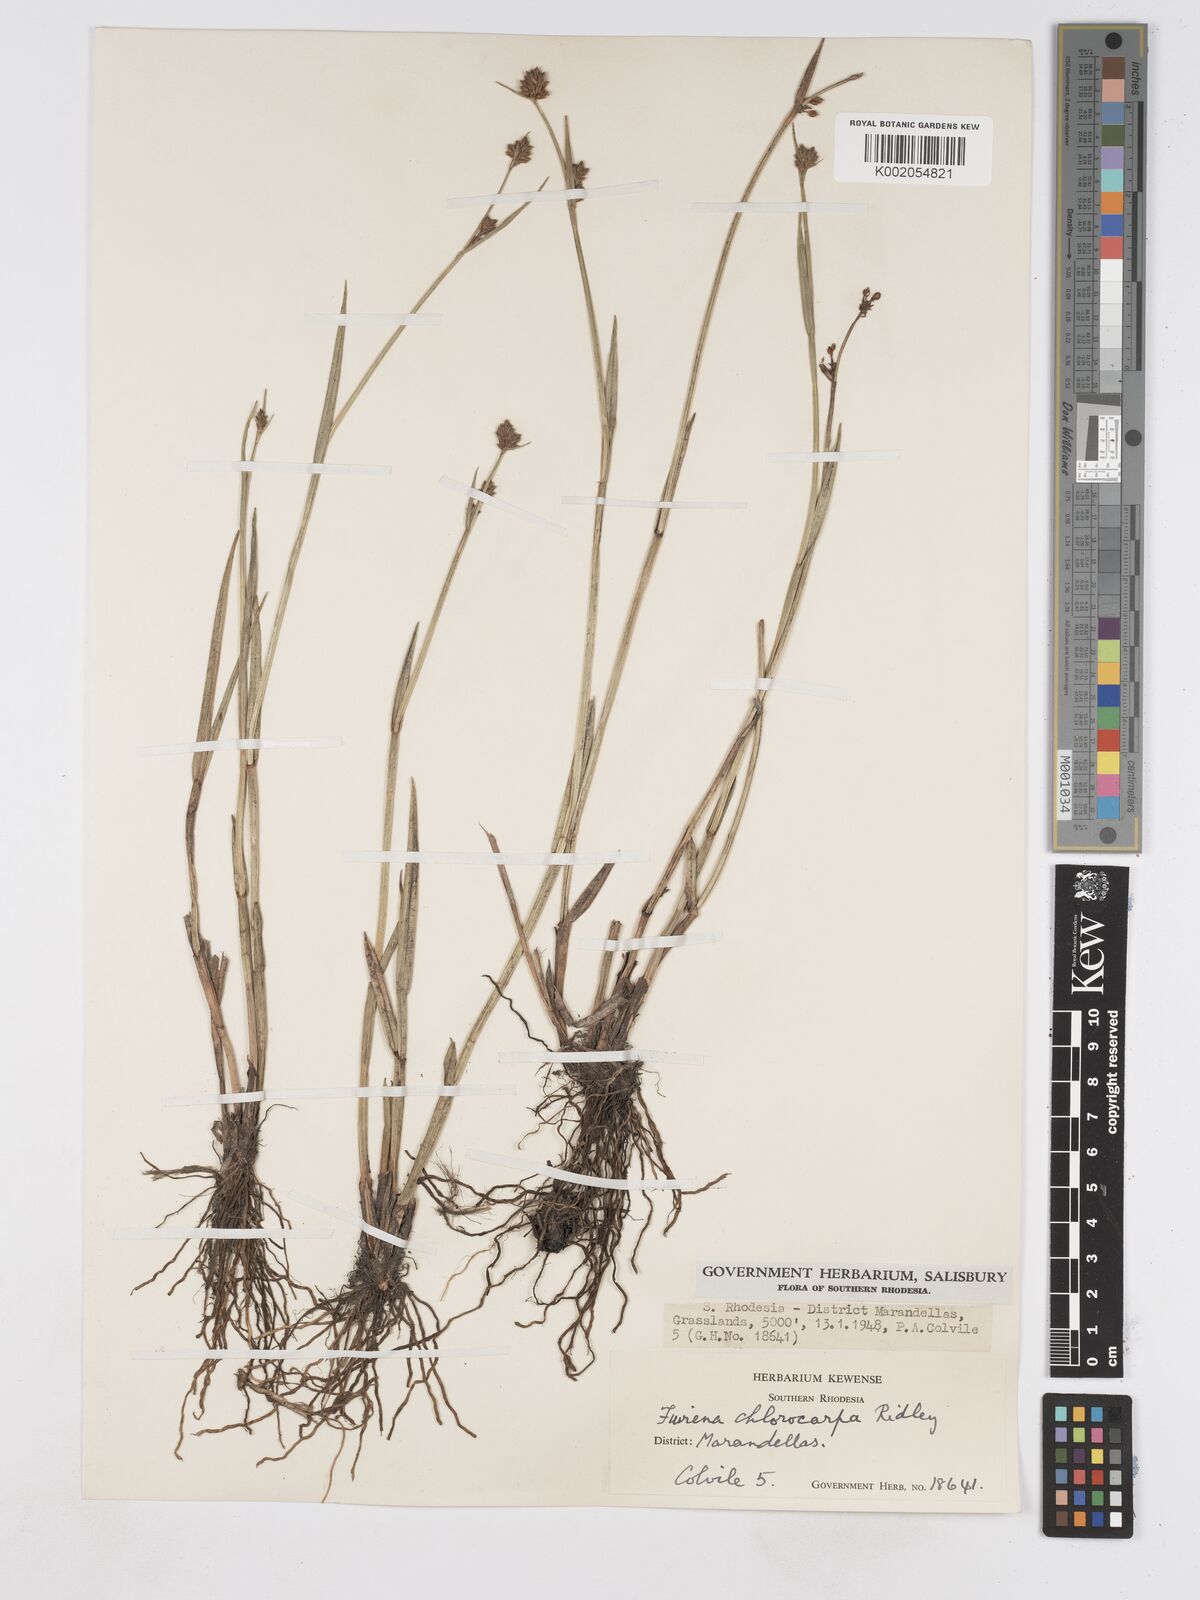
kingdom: Plantae
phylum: Tracheophyta
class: Liliopsida
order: Poales
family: Cyperaceae
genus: Fuirena
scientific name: Fuirena stricta
